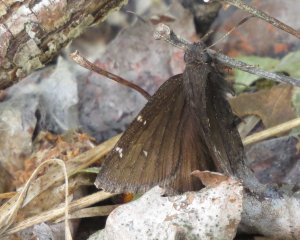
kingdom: Animalia
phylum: Arthropoda
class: Insecta
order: Lepidoptera
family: Hesperiidae
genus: Autochton
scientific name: Autochton
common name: Northern Cloudywing
